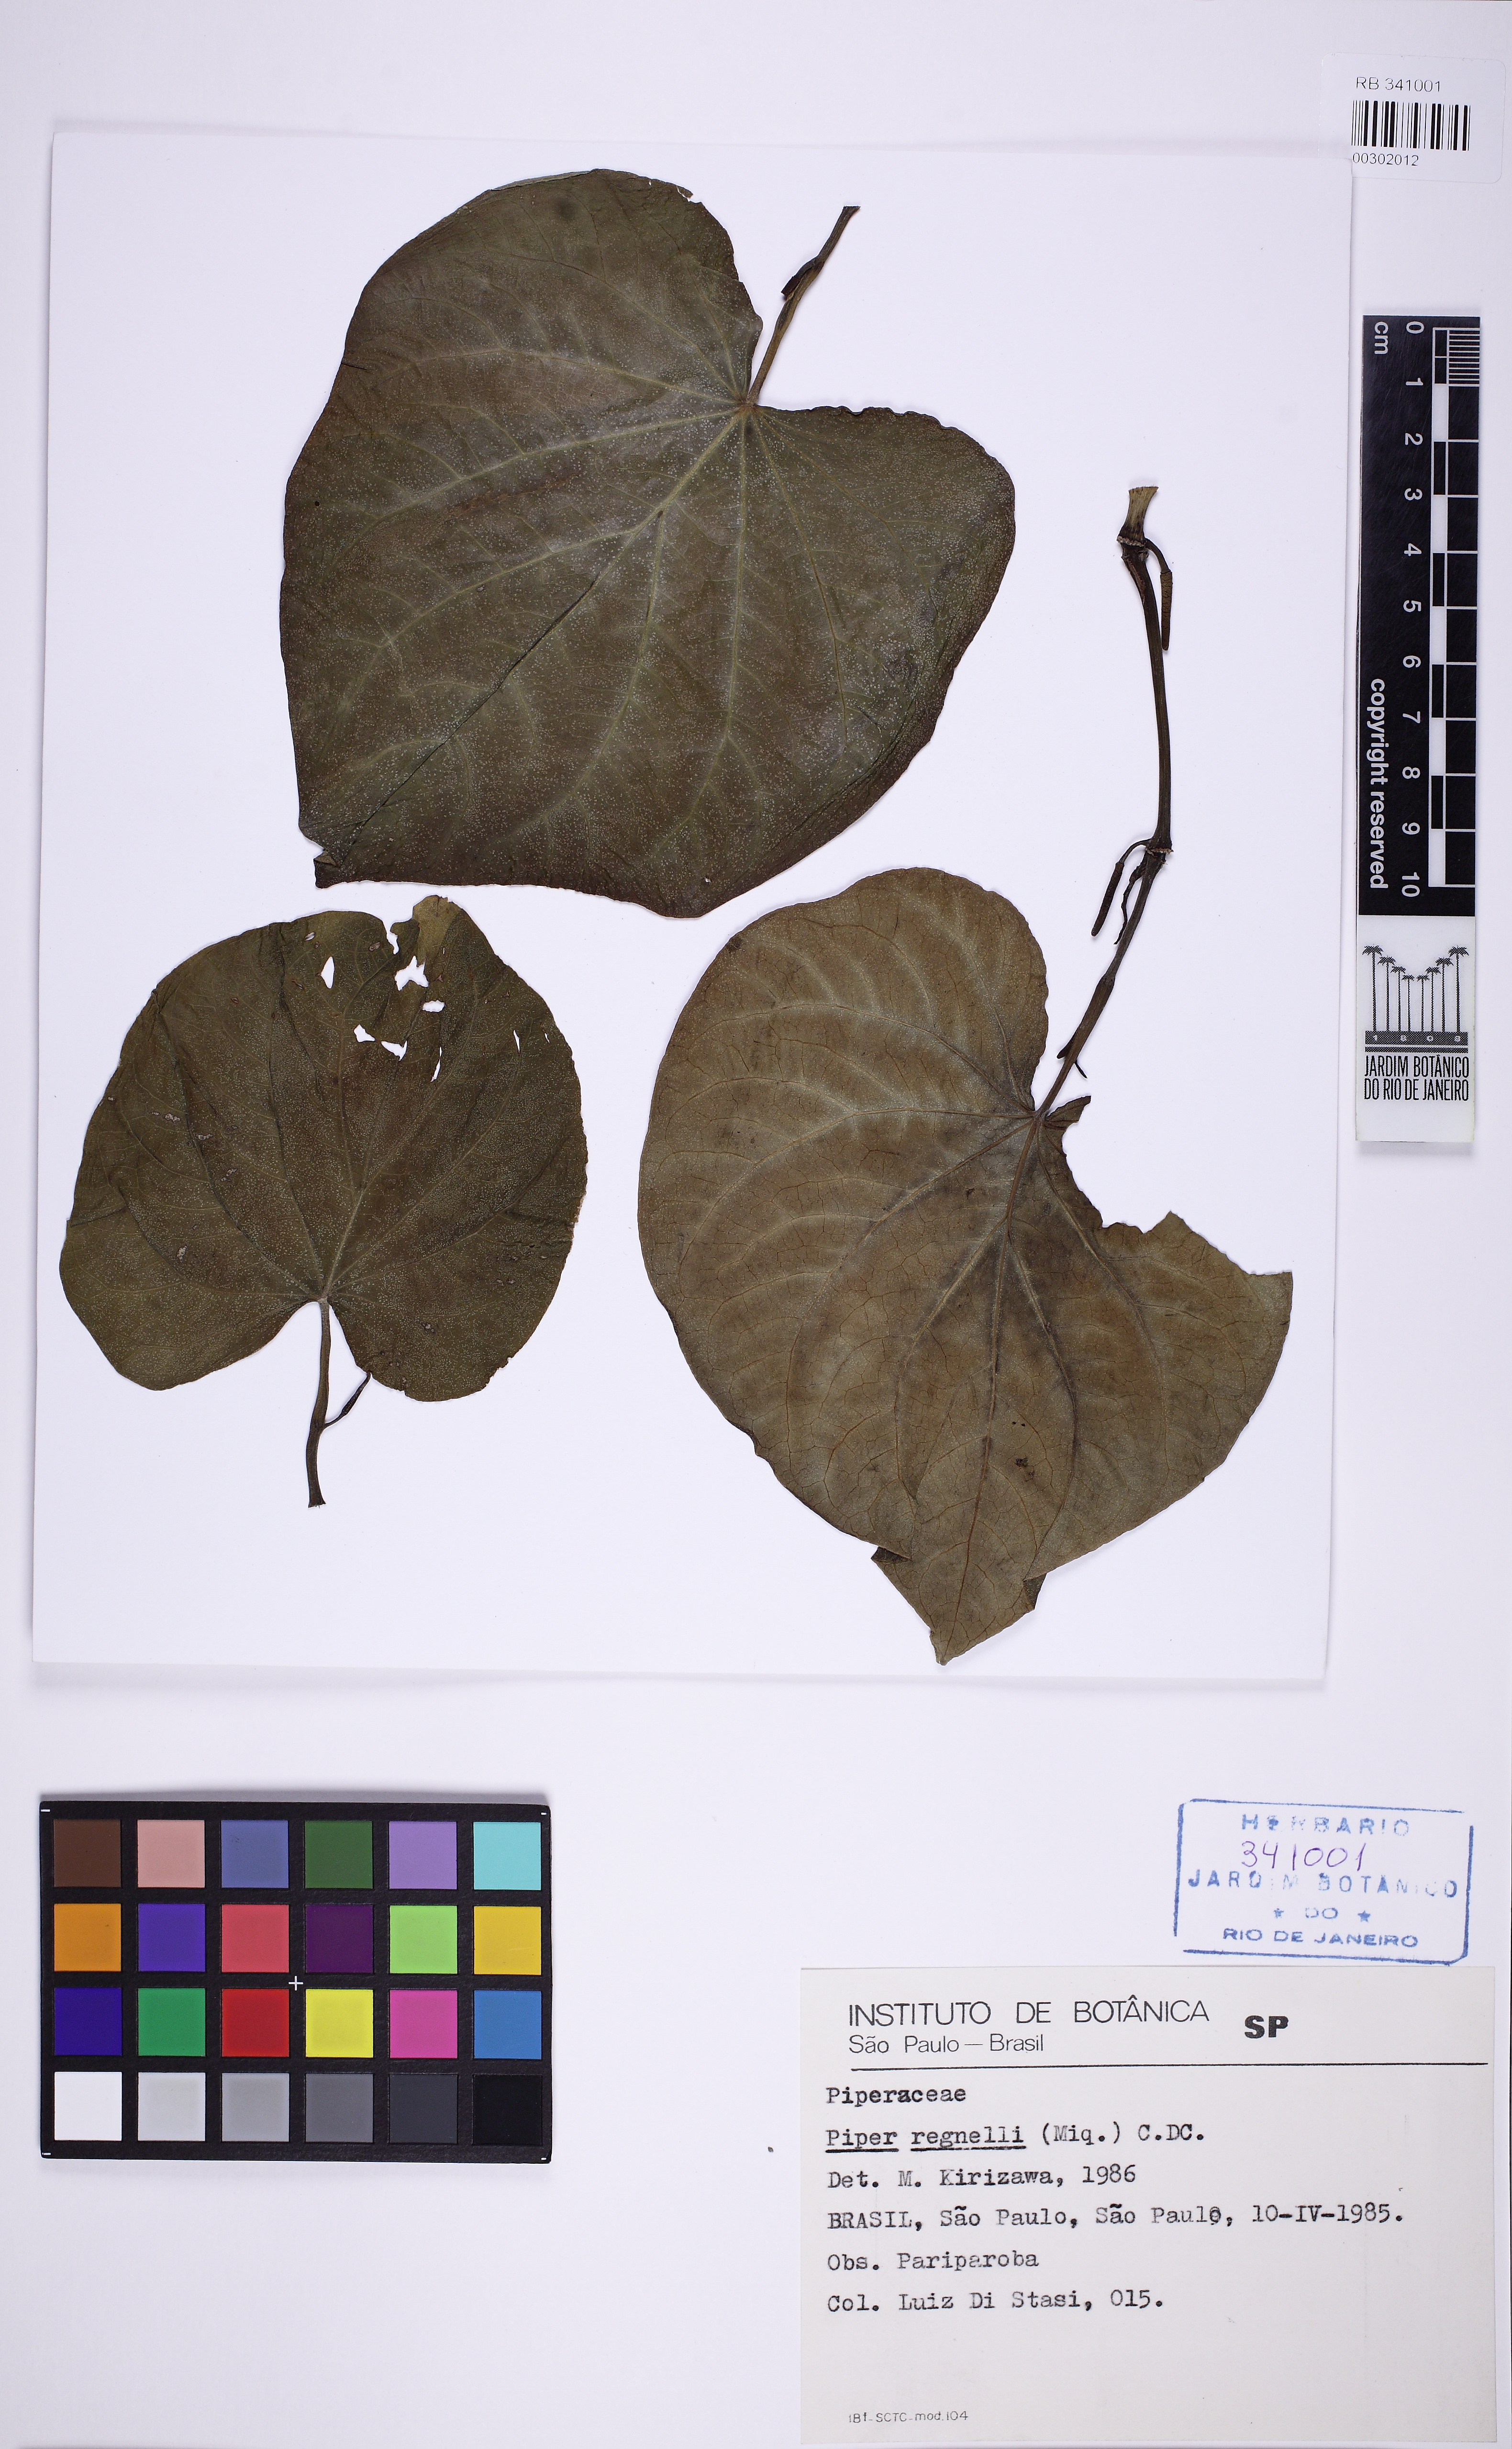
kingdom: Plantae
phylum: Tracheophyta
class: Magnoliopsida
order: Piperales
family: Piperaceae
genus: Piper
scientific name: Piper regnellii
